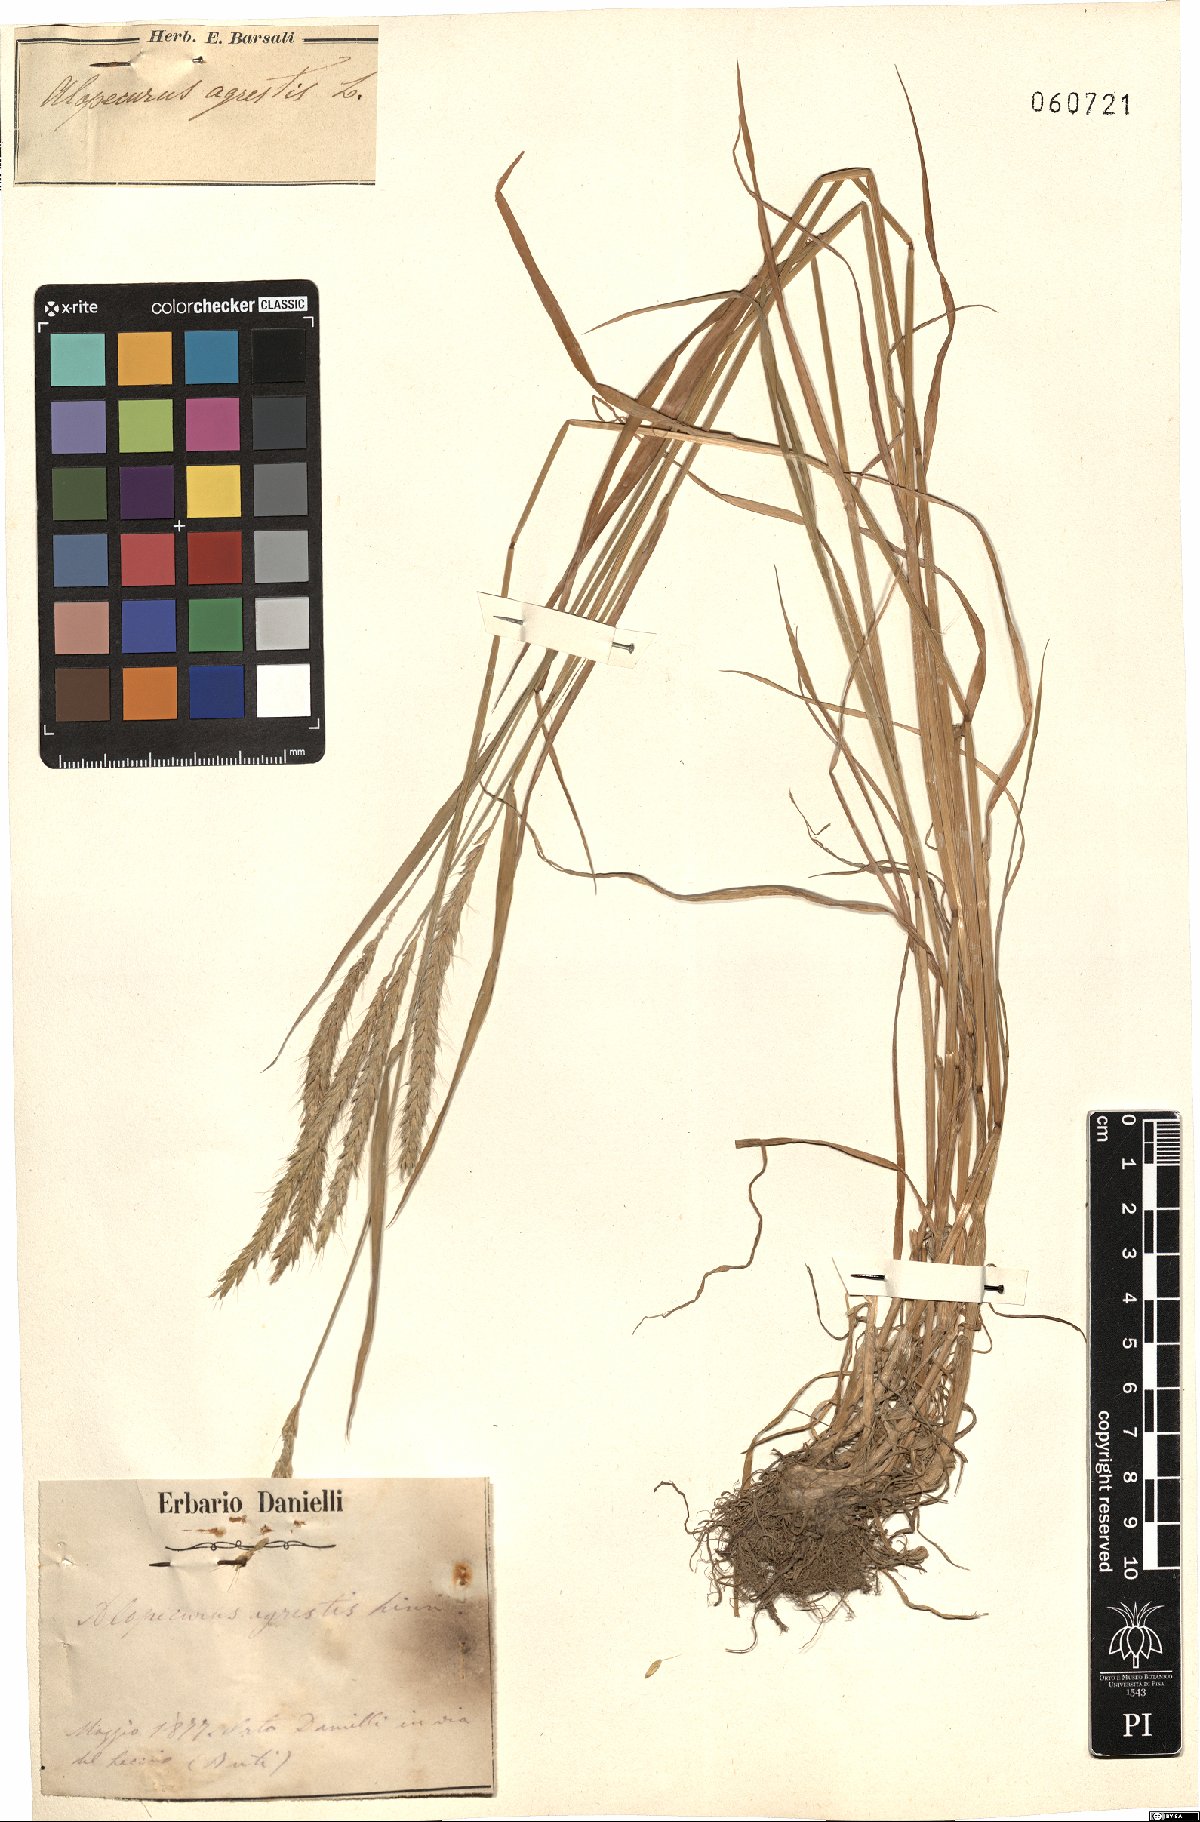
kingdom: Plantae
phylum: Tracheophyta
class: Liliopsida
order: Poales
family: Poaceae
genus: Alopecurus
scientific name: Alopecurus myosuroides
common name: Black-grass
